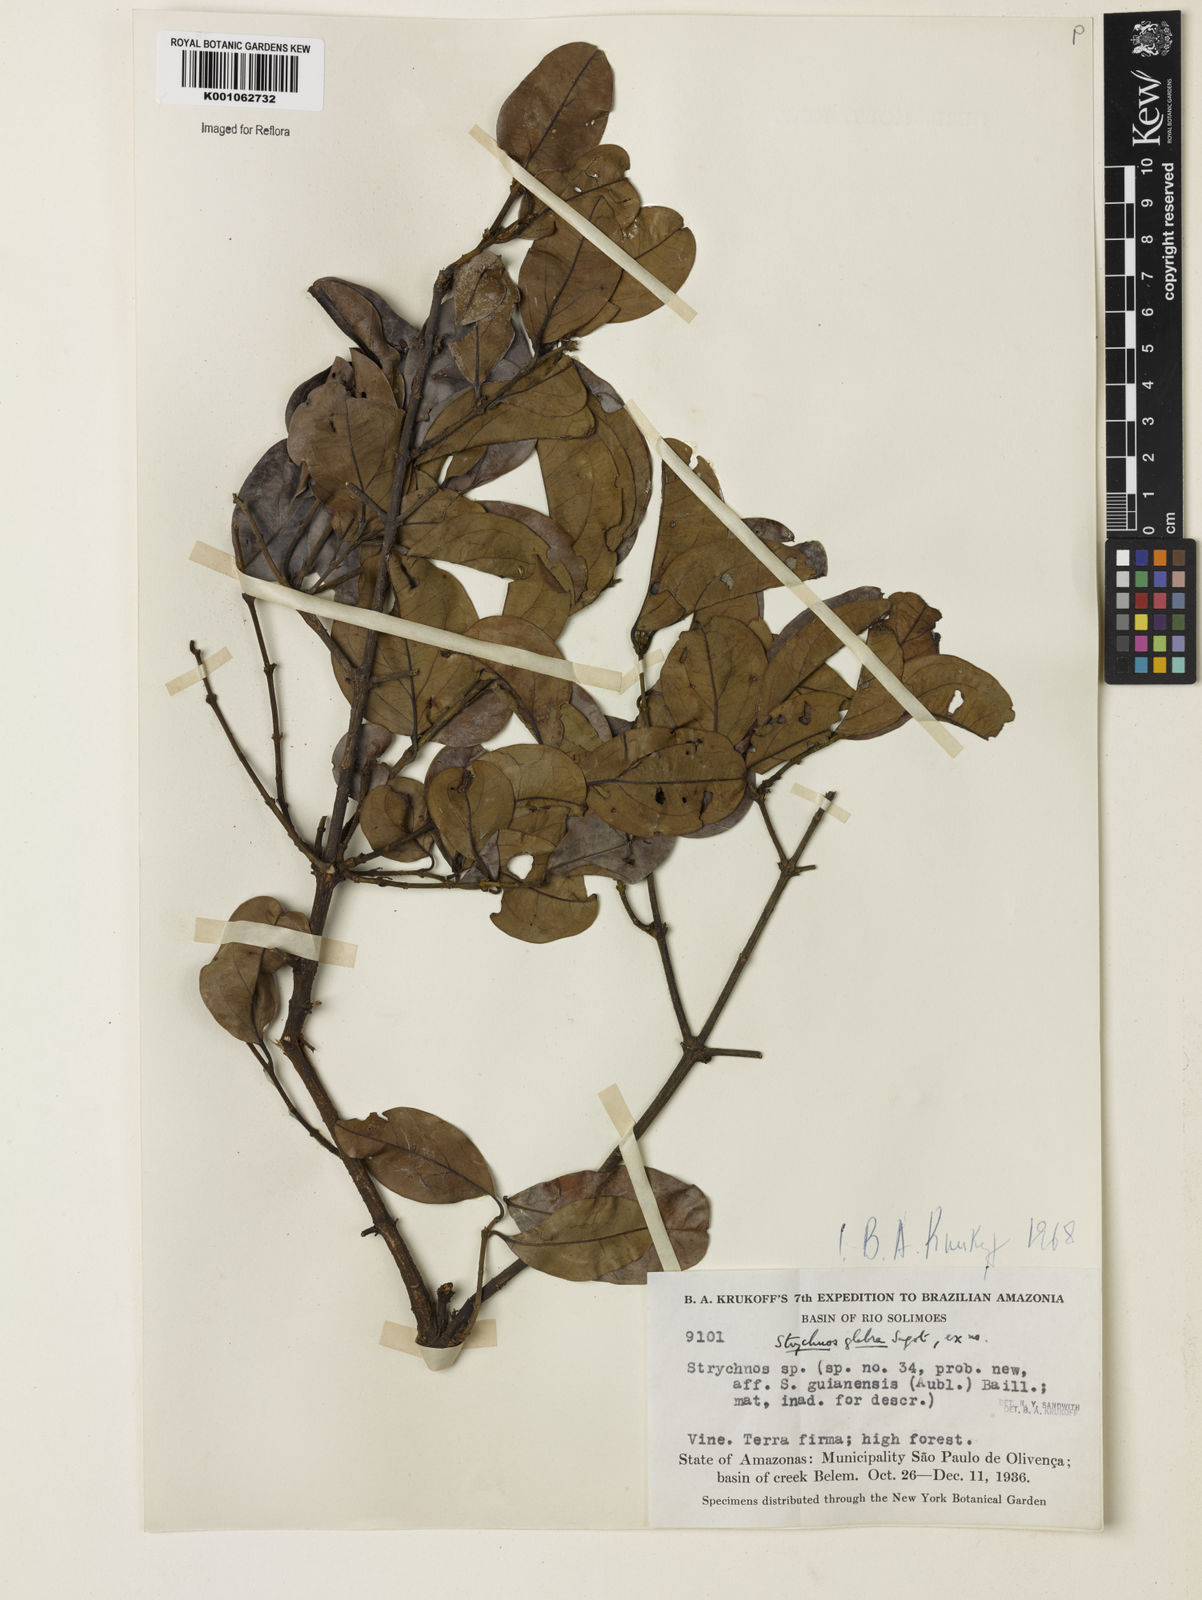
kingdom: Plantae
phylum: Tracheophyta
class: Magnoliopsida
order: Gentianales
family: Loganiaceae
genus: Strychnos
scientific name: Strychnos glabra
